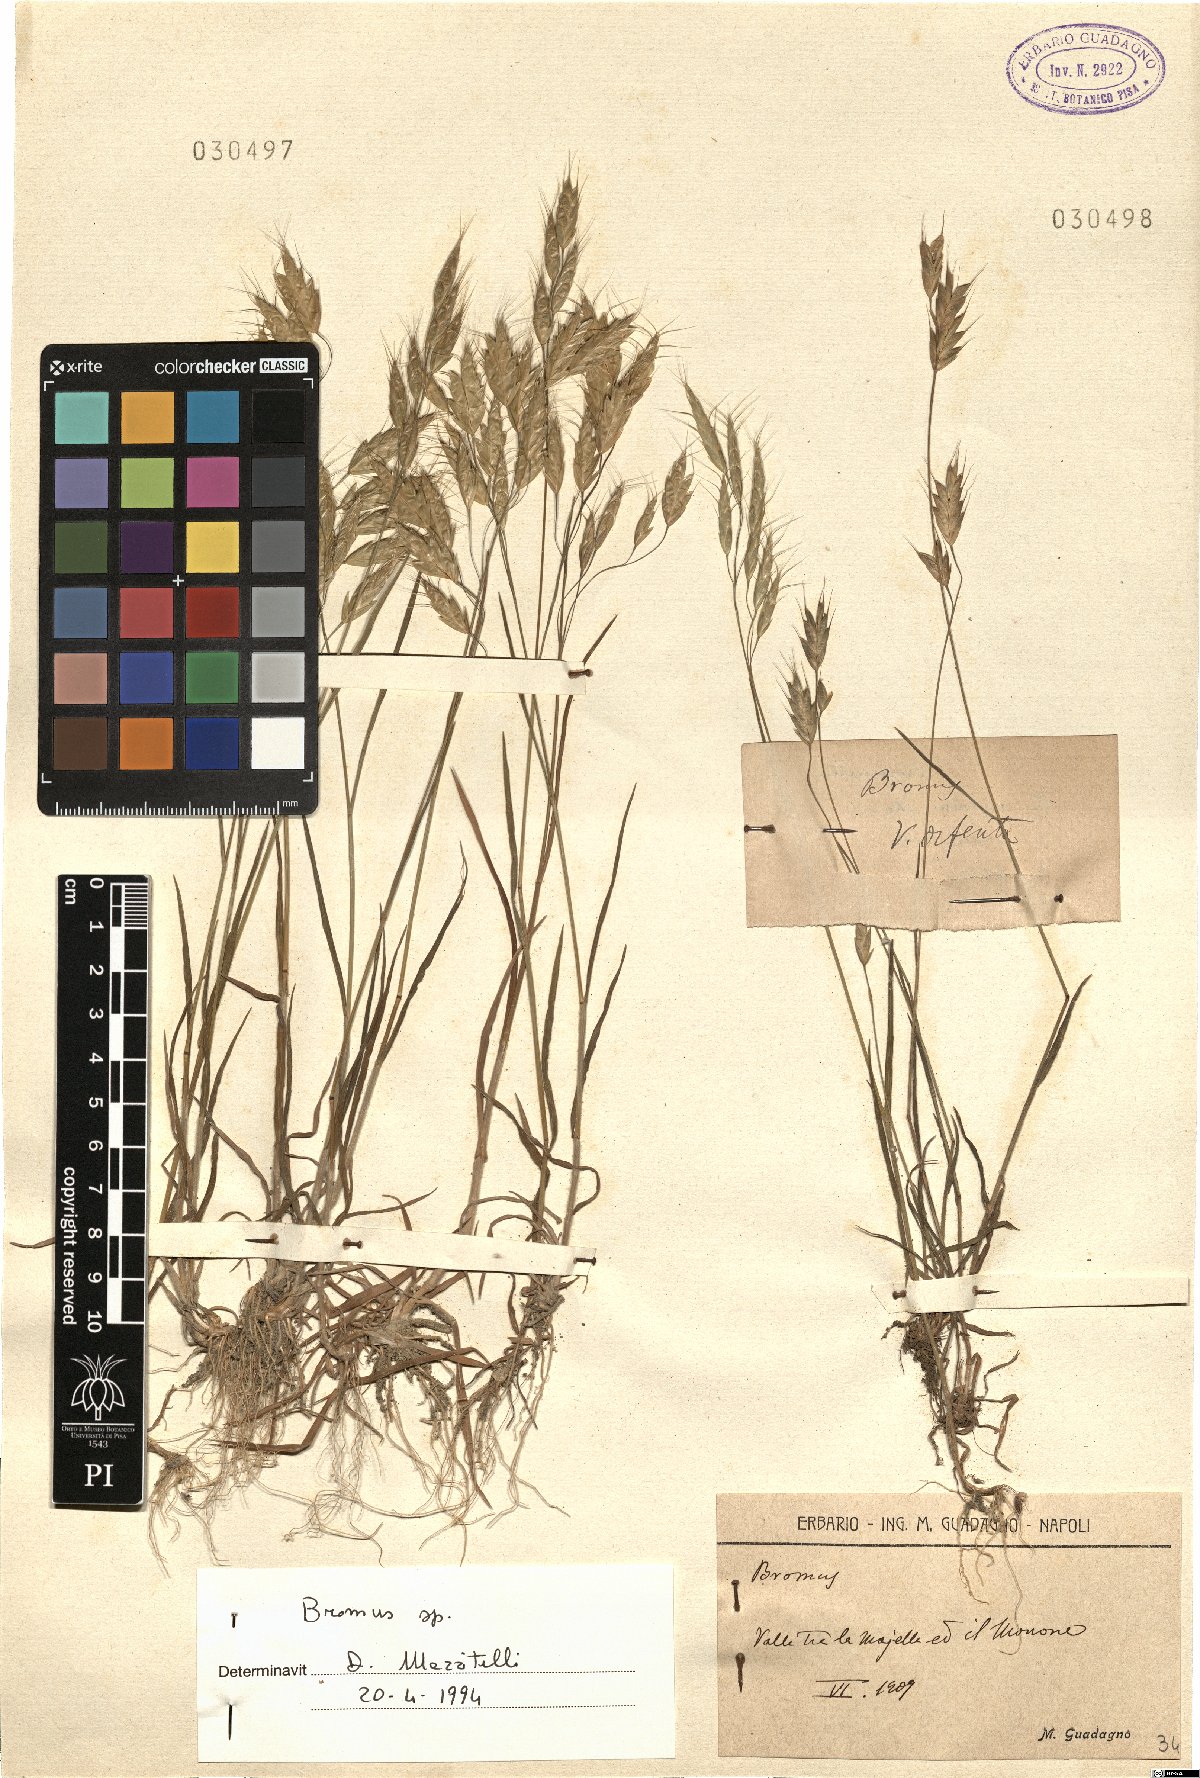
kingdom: Plantae
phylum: Tracheophyta
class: Liliopsida
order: Poales
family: Poaceae
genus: Bromus
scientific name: Bromus
